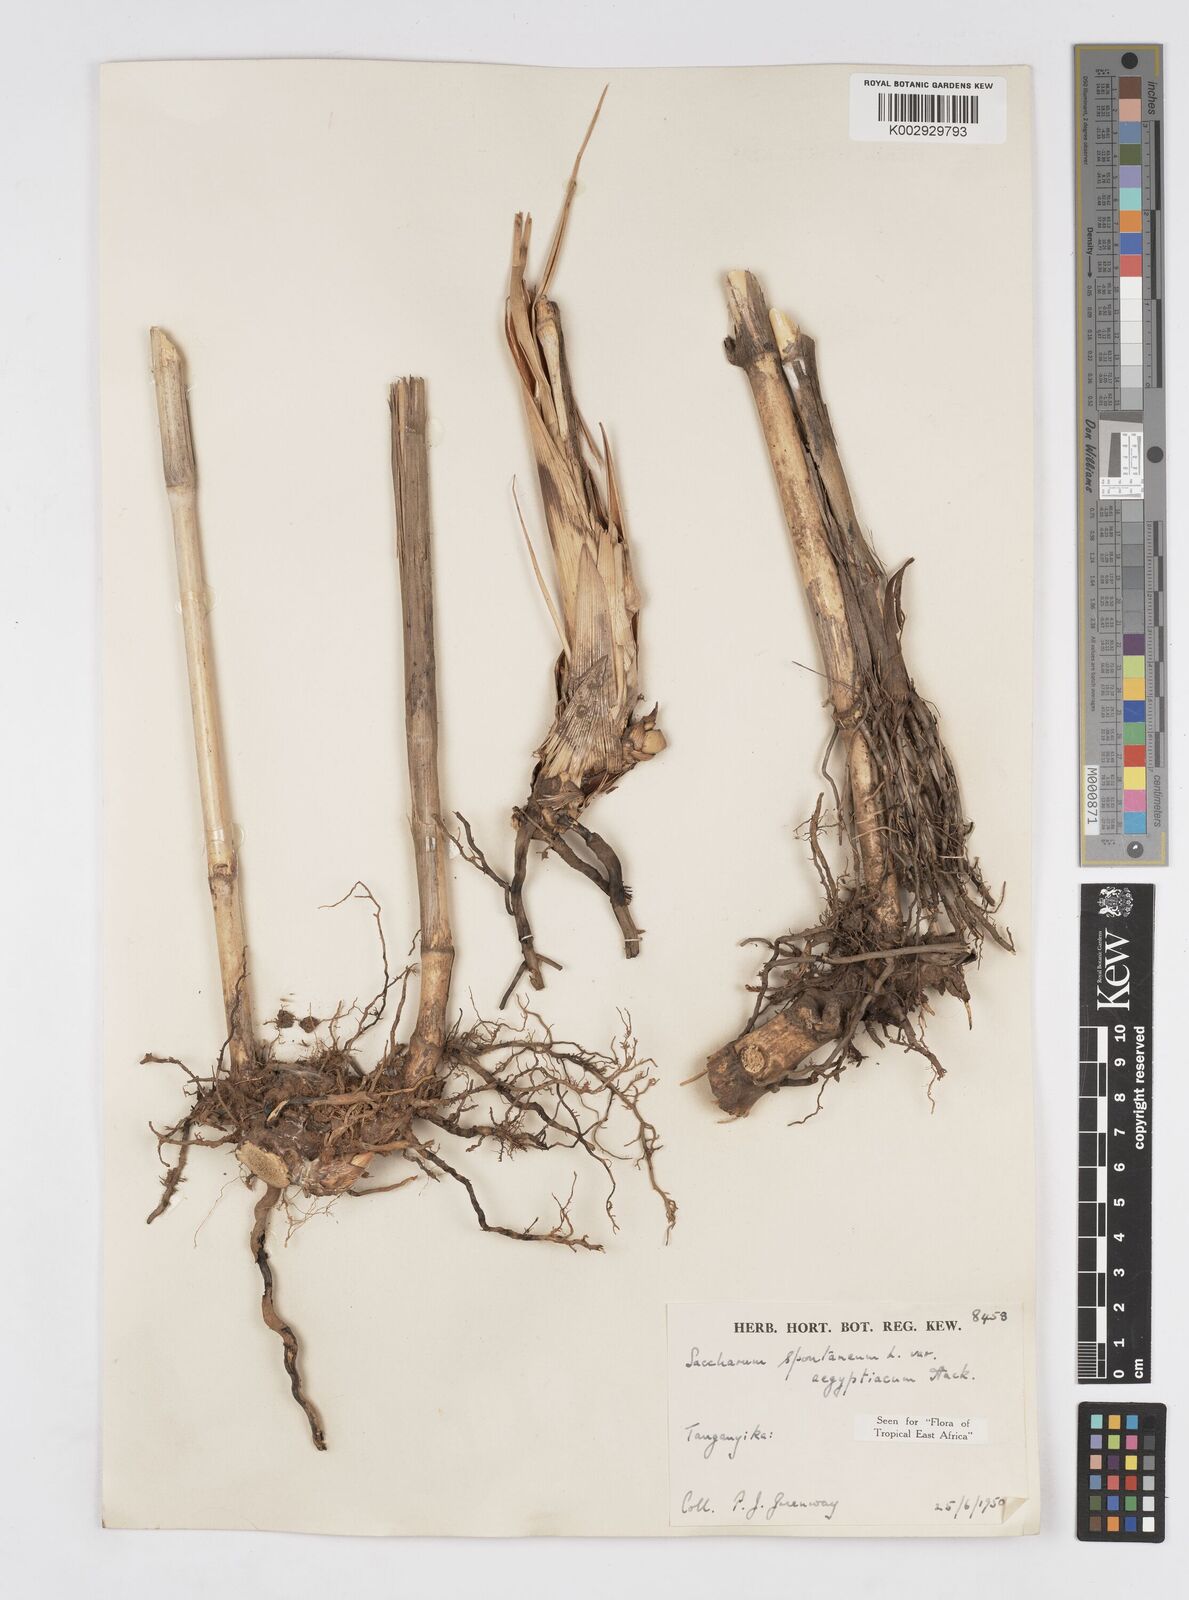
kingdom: Plantae
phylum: Tracheophyta
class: Liliopsida
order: Poales
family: Poaceae
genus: Saccharum
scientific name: Saccharum spontaneum
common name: Wild sugarcane
